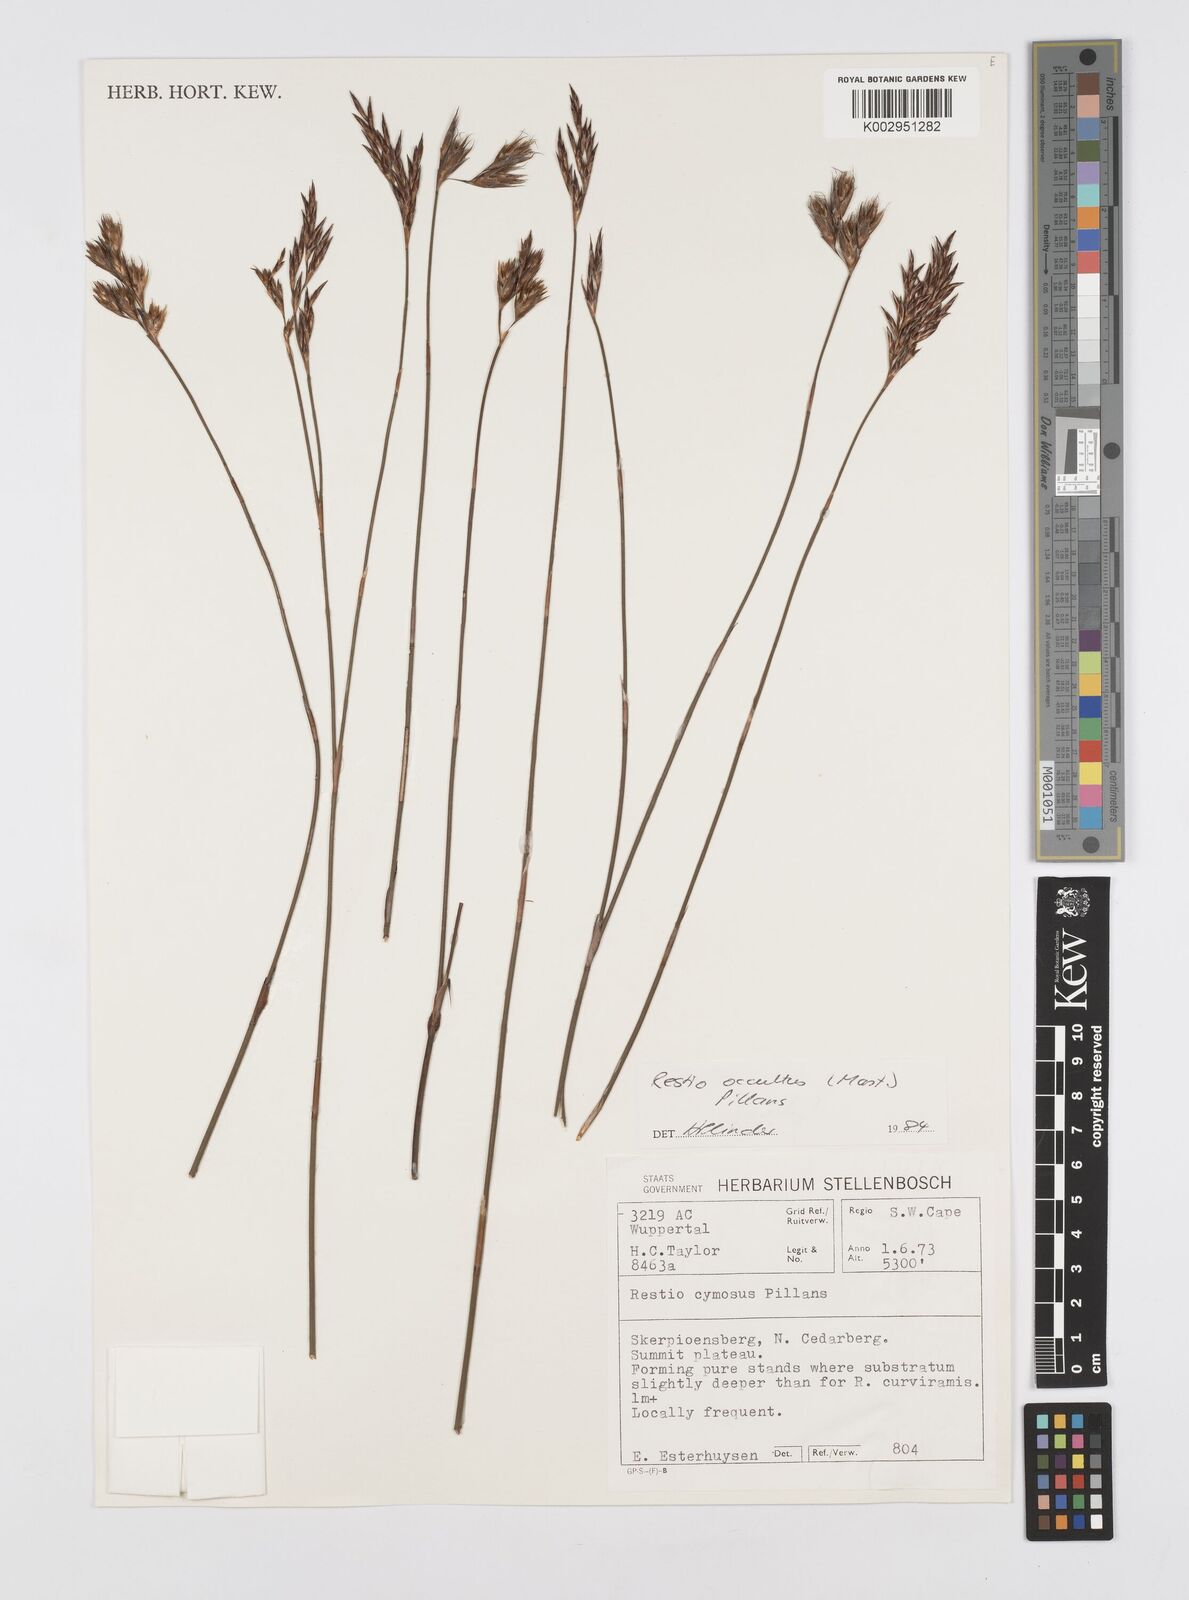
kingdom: Plantae
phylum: Tracheophyta
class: Liliopsida
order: Poales
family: Restionaceae
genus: Restio
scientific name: Restio occultus
